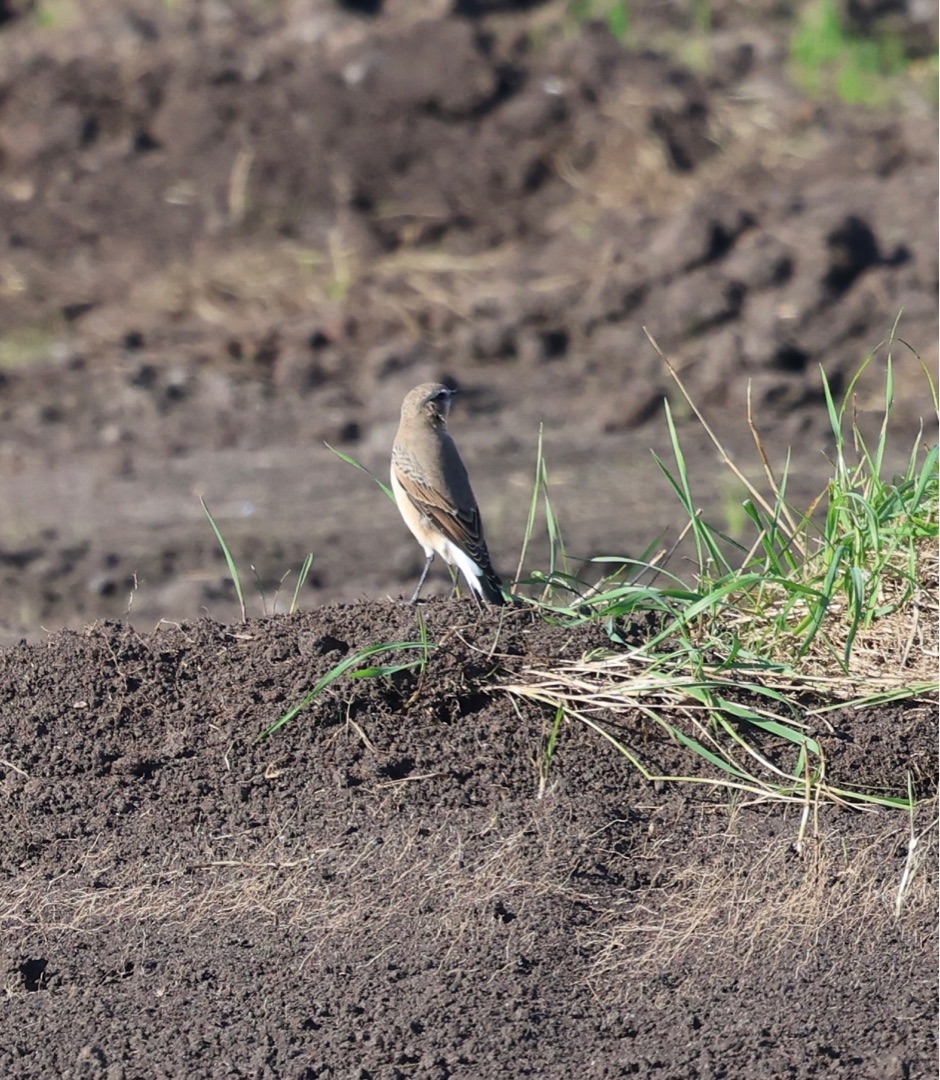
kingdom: Animalia
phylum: Chordata
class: Aves
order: Passeriformes
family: Muscicapidae
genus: Oenanthe
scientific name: Oenanthe oenanthe
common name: Stenpikker
